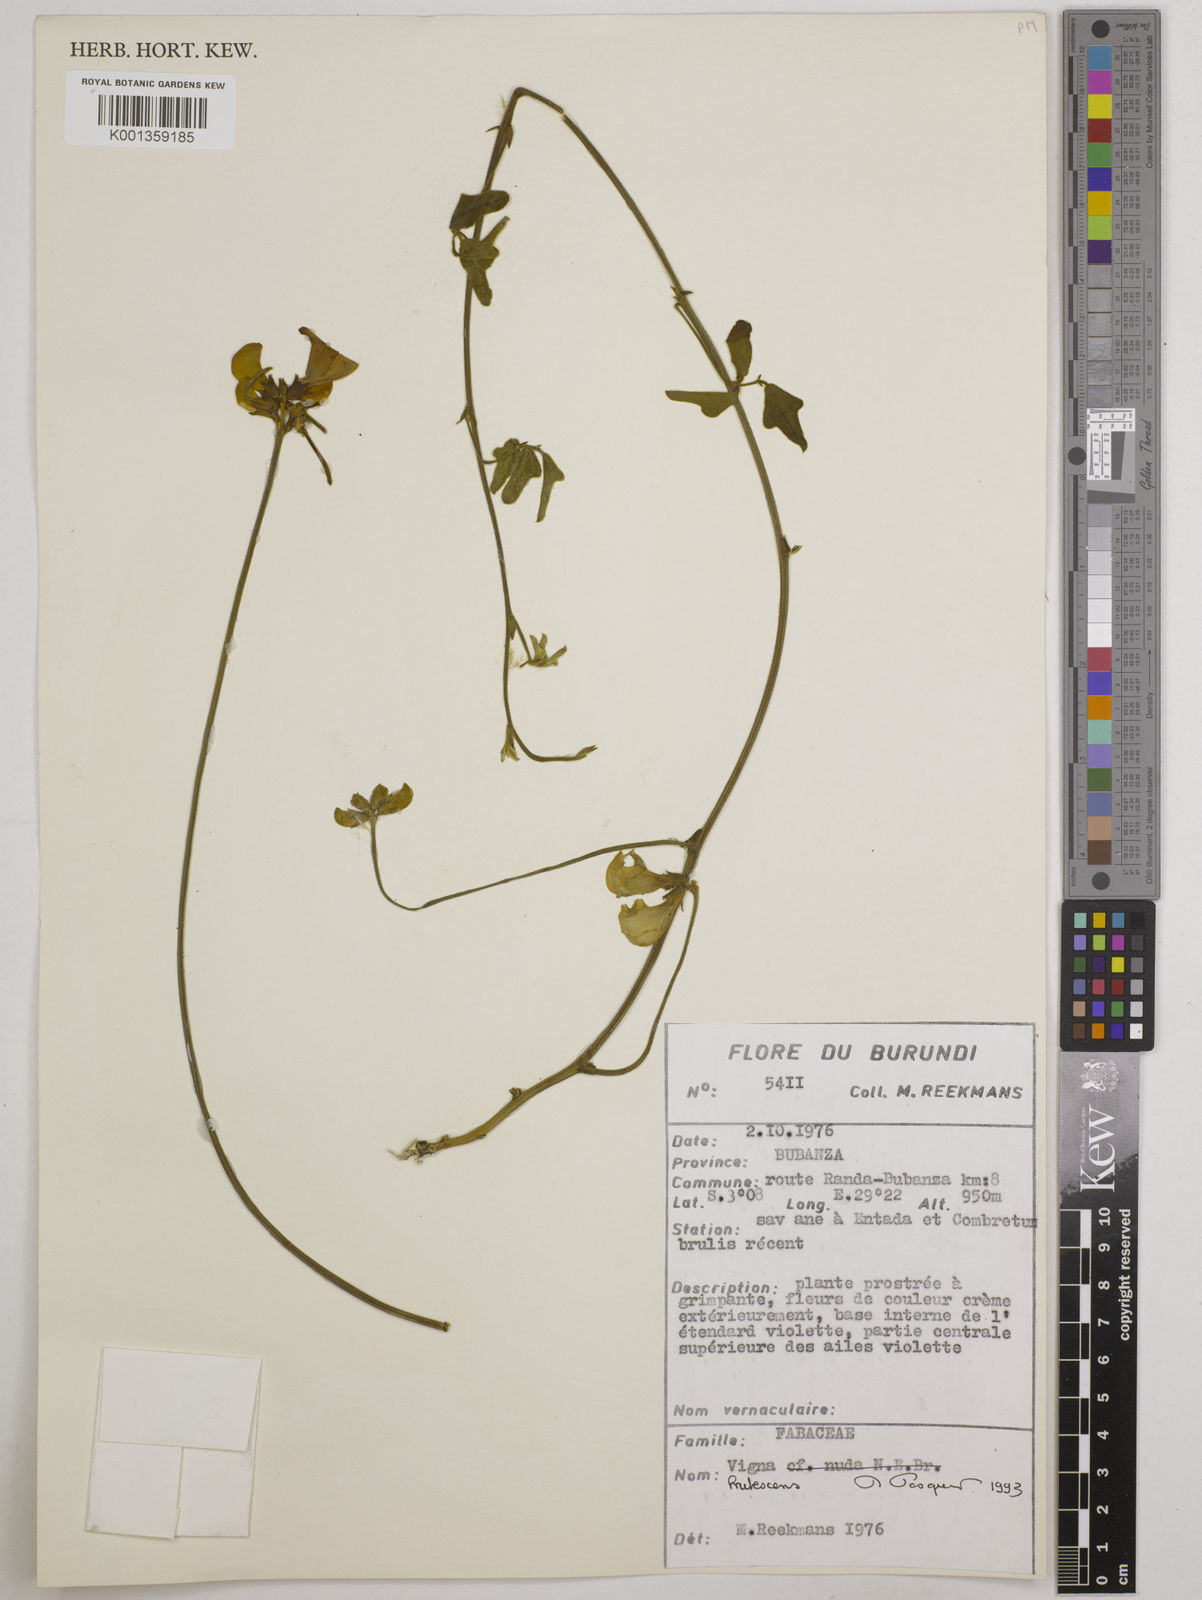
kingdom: Plantae
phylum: Tracheophyta
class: Magnoliopsida
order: Fabales
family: Fabaceae
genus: Vigna
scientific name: Vigna frutescens
